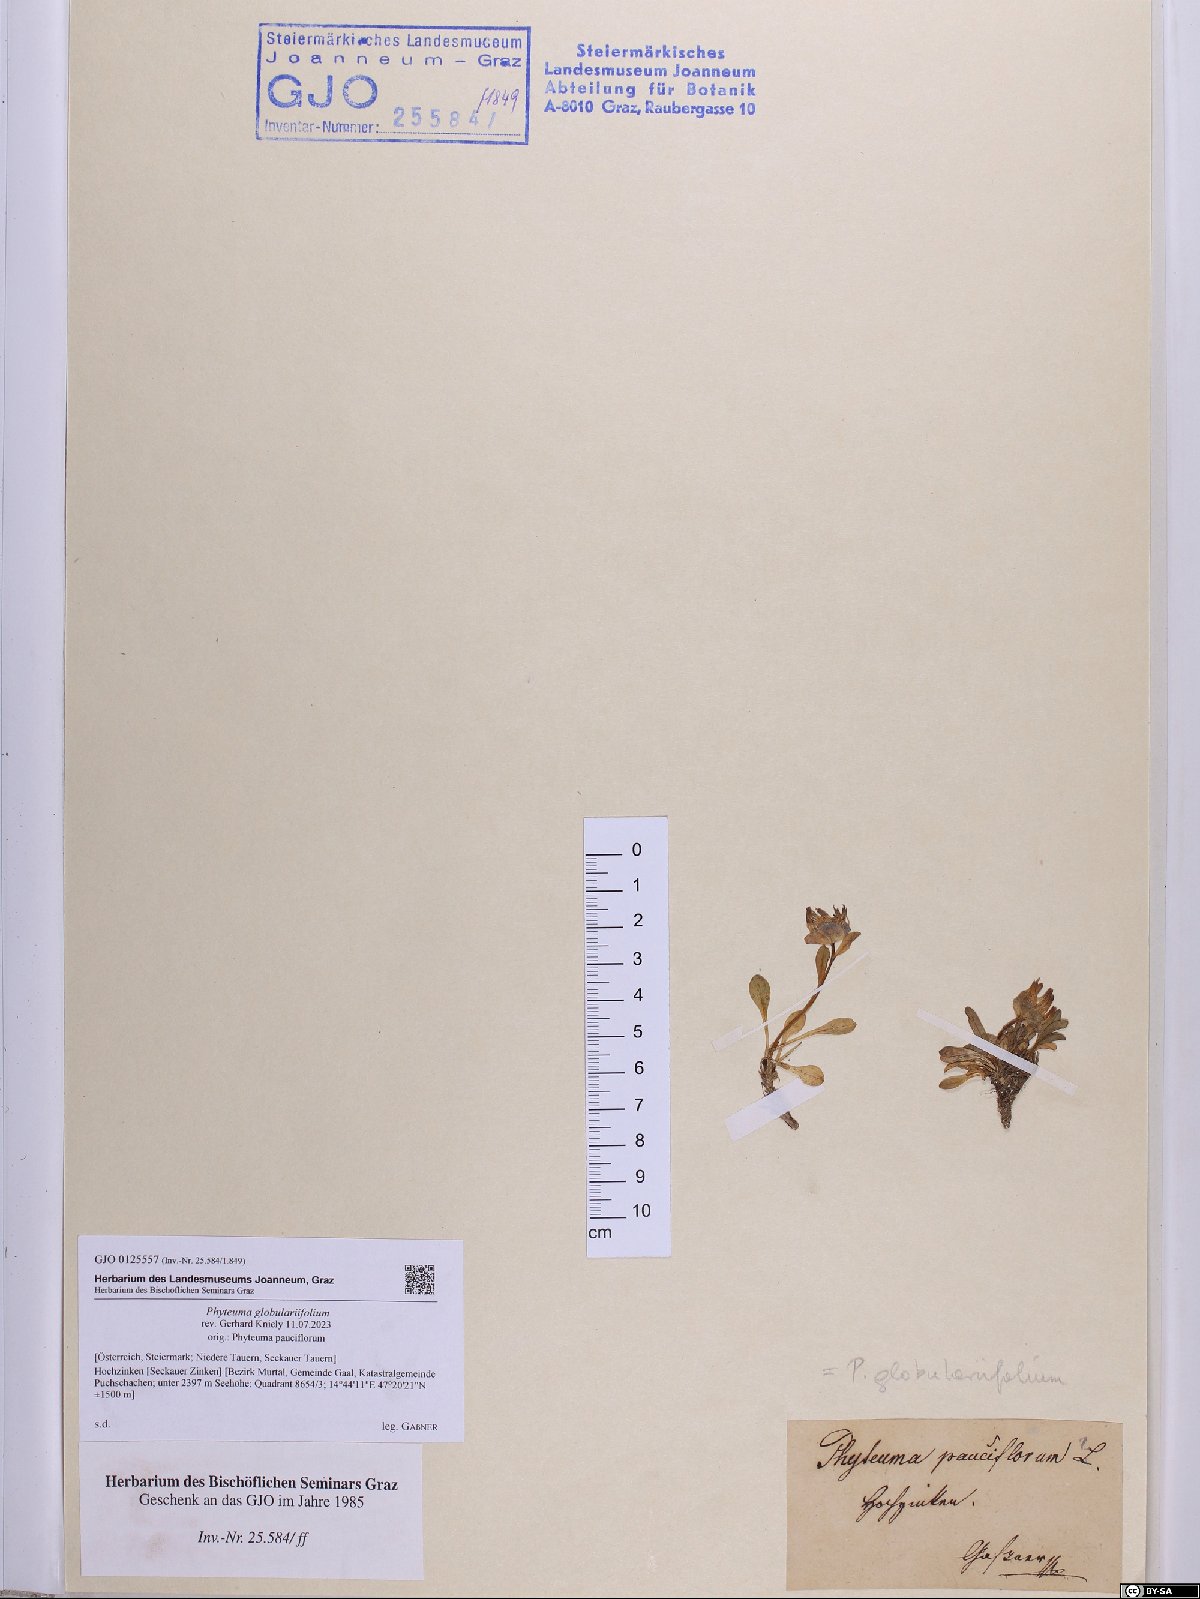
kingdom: Plantae
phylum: Tracheophyta
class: Magnoliopsida
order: Asterales
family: Campanulaceae
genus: Phyteuma
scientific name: Phyteuma globulariifolium
